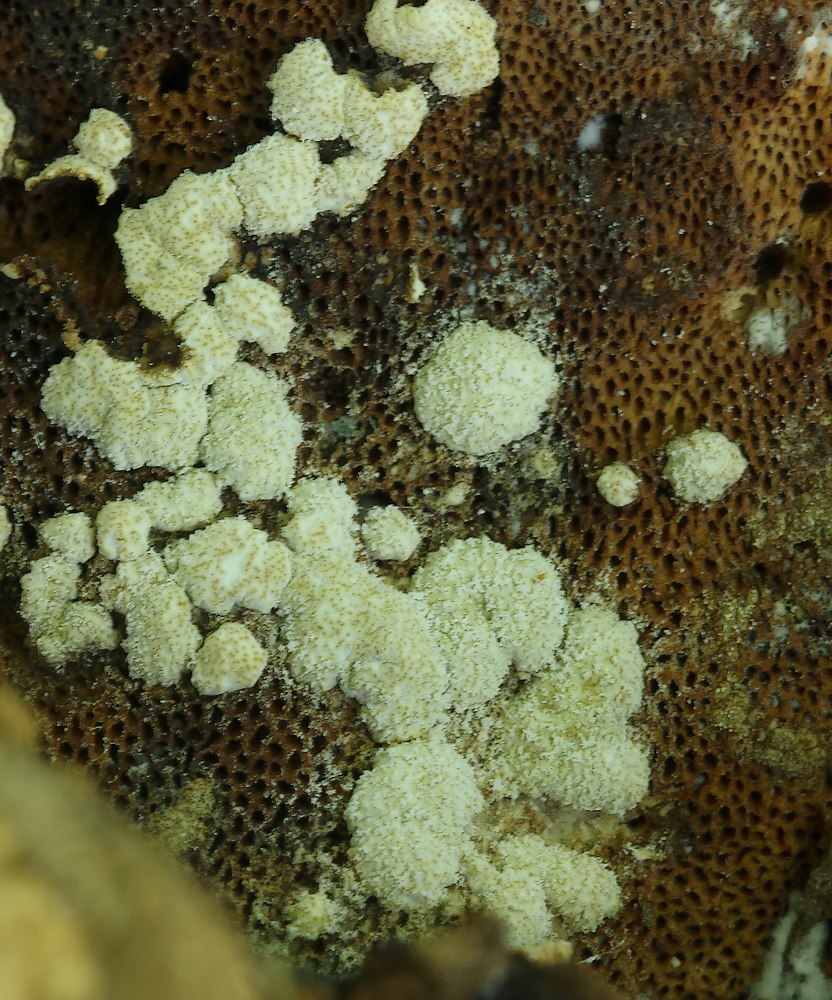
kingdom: Fungi
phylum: Ascomycota
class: Sordariomycetes
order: Hypocreales
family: Hypocreaceae
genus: Trichoderma
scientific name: Trichoderma pulvinatum
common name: snyltende kødkerne
